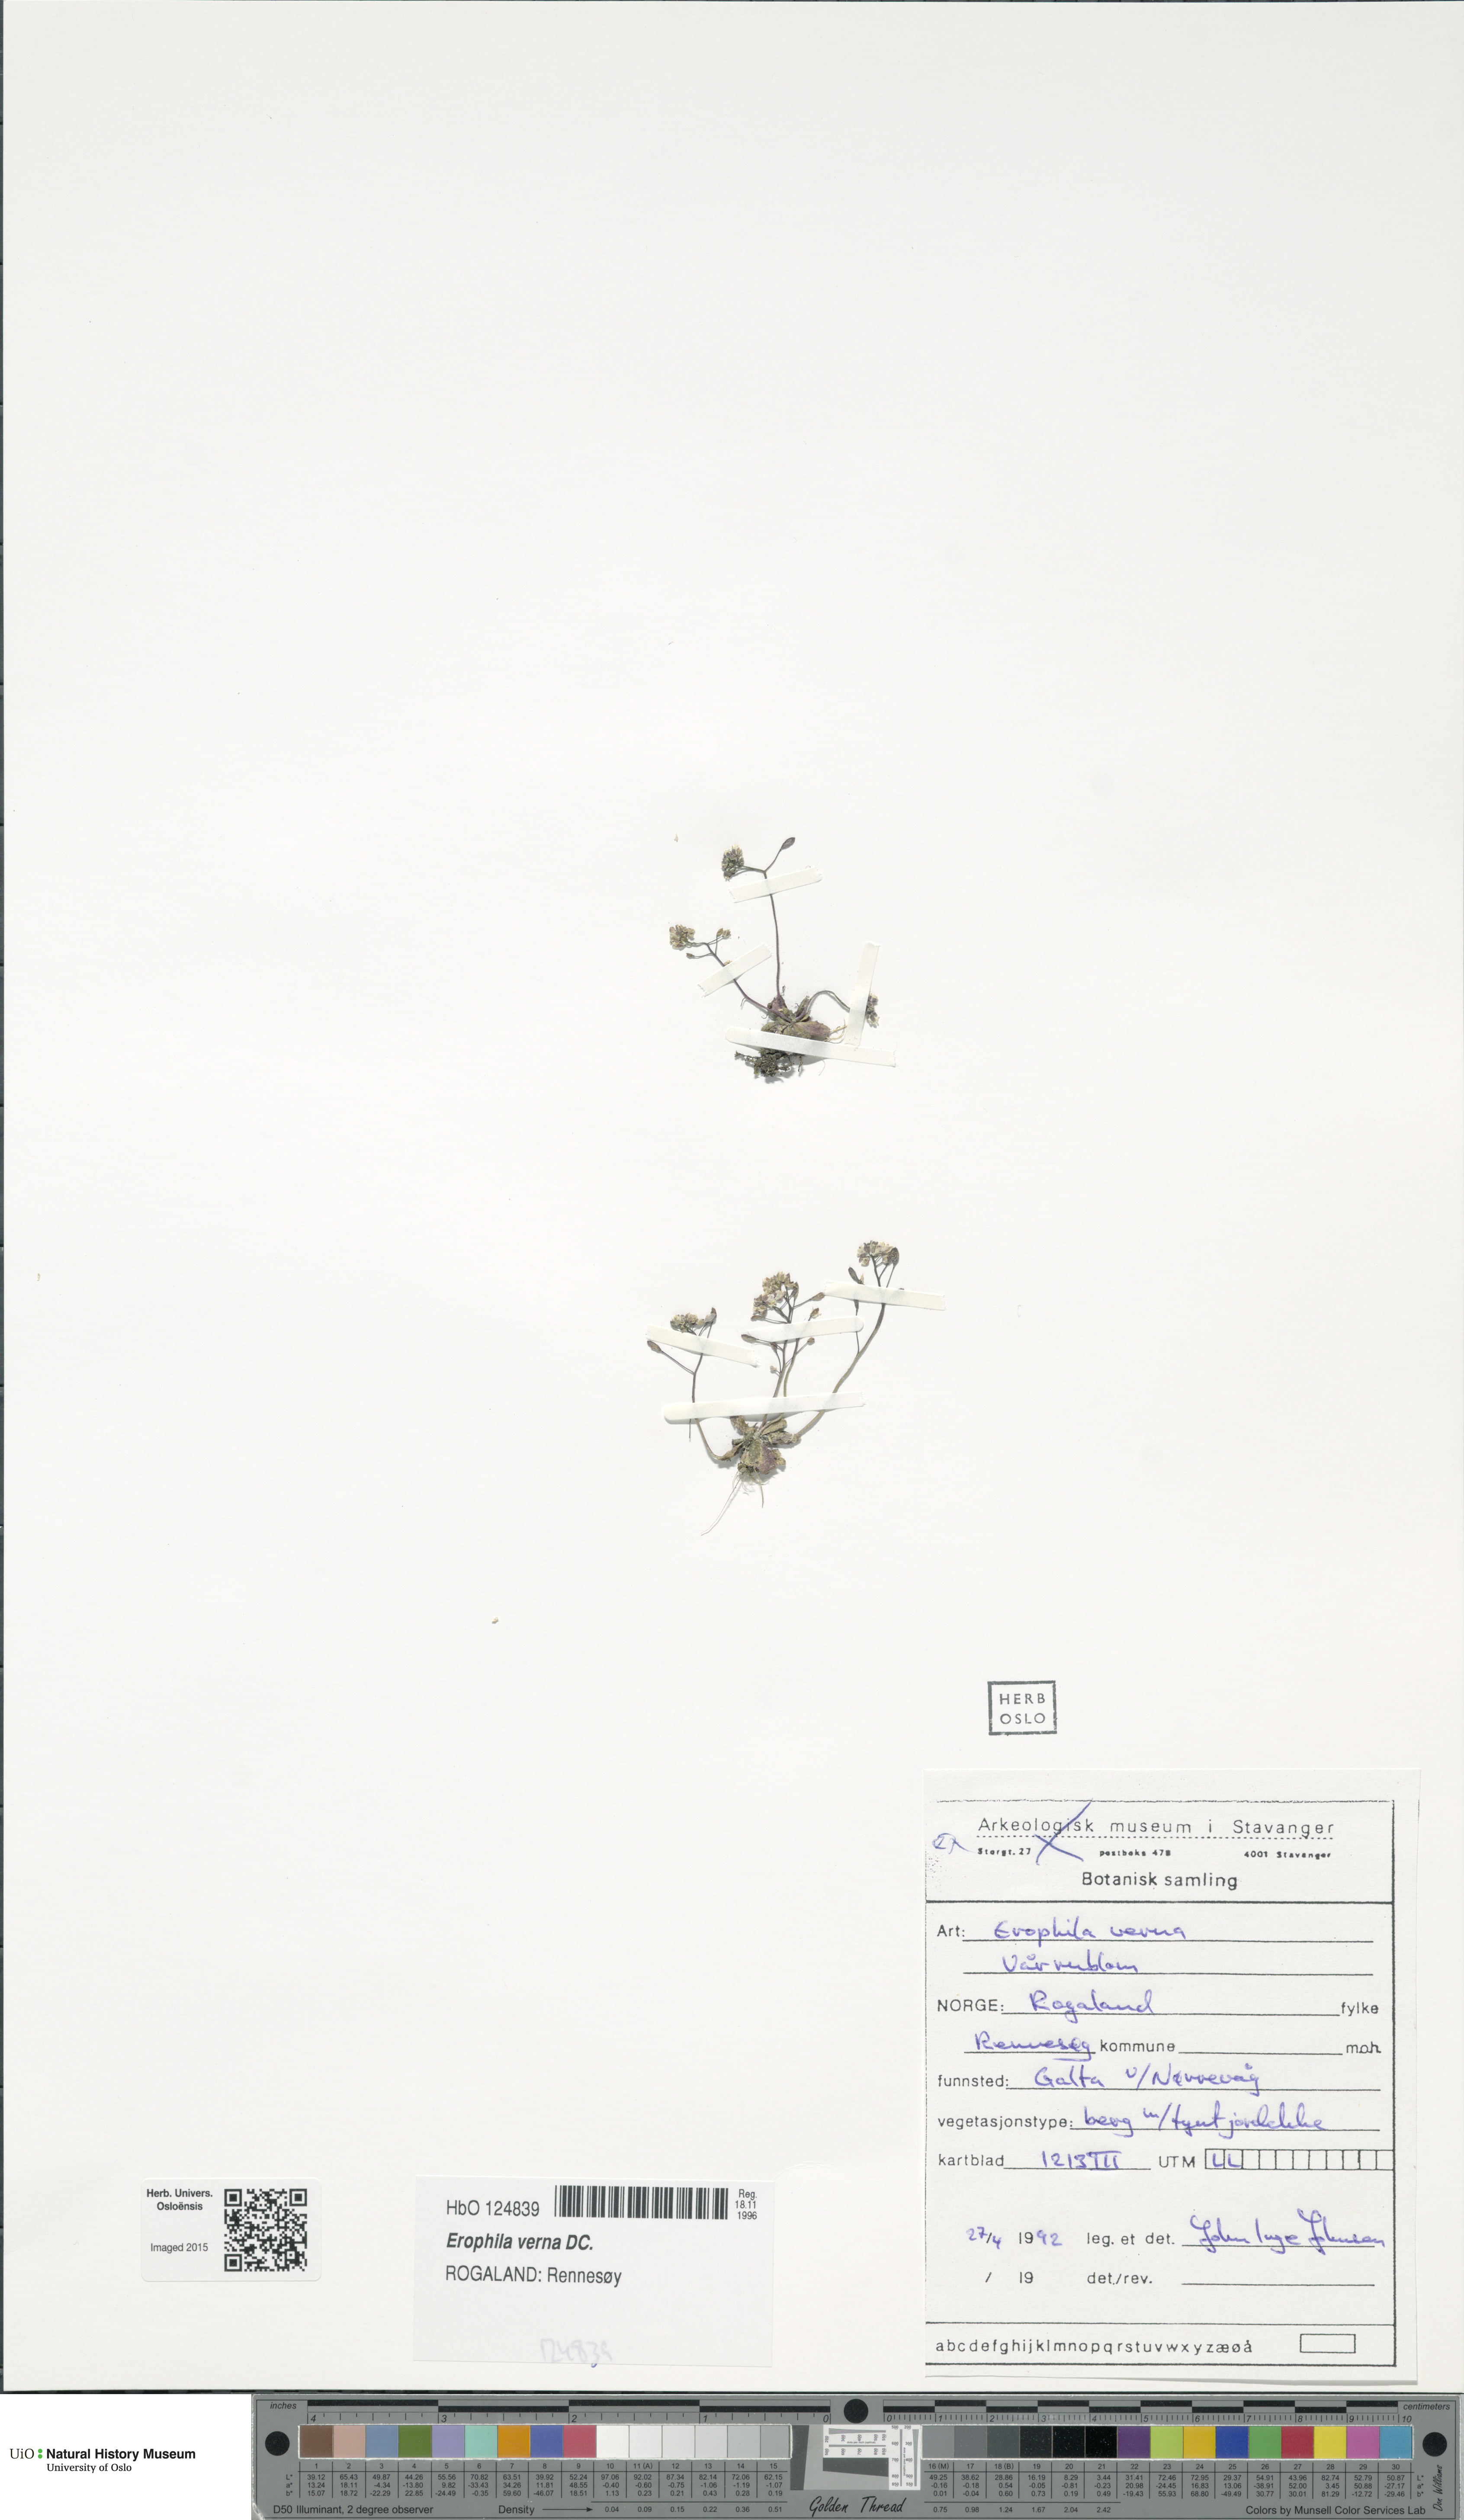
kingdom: Plantae
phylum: Tracheophyta
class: Magnoliopsida
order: Brassicales
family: Brassicaceae
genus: Draba
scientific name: Draba verna
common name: Spring draba
